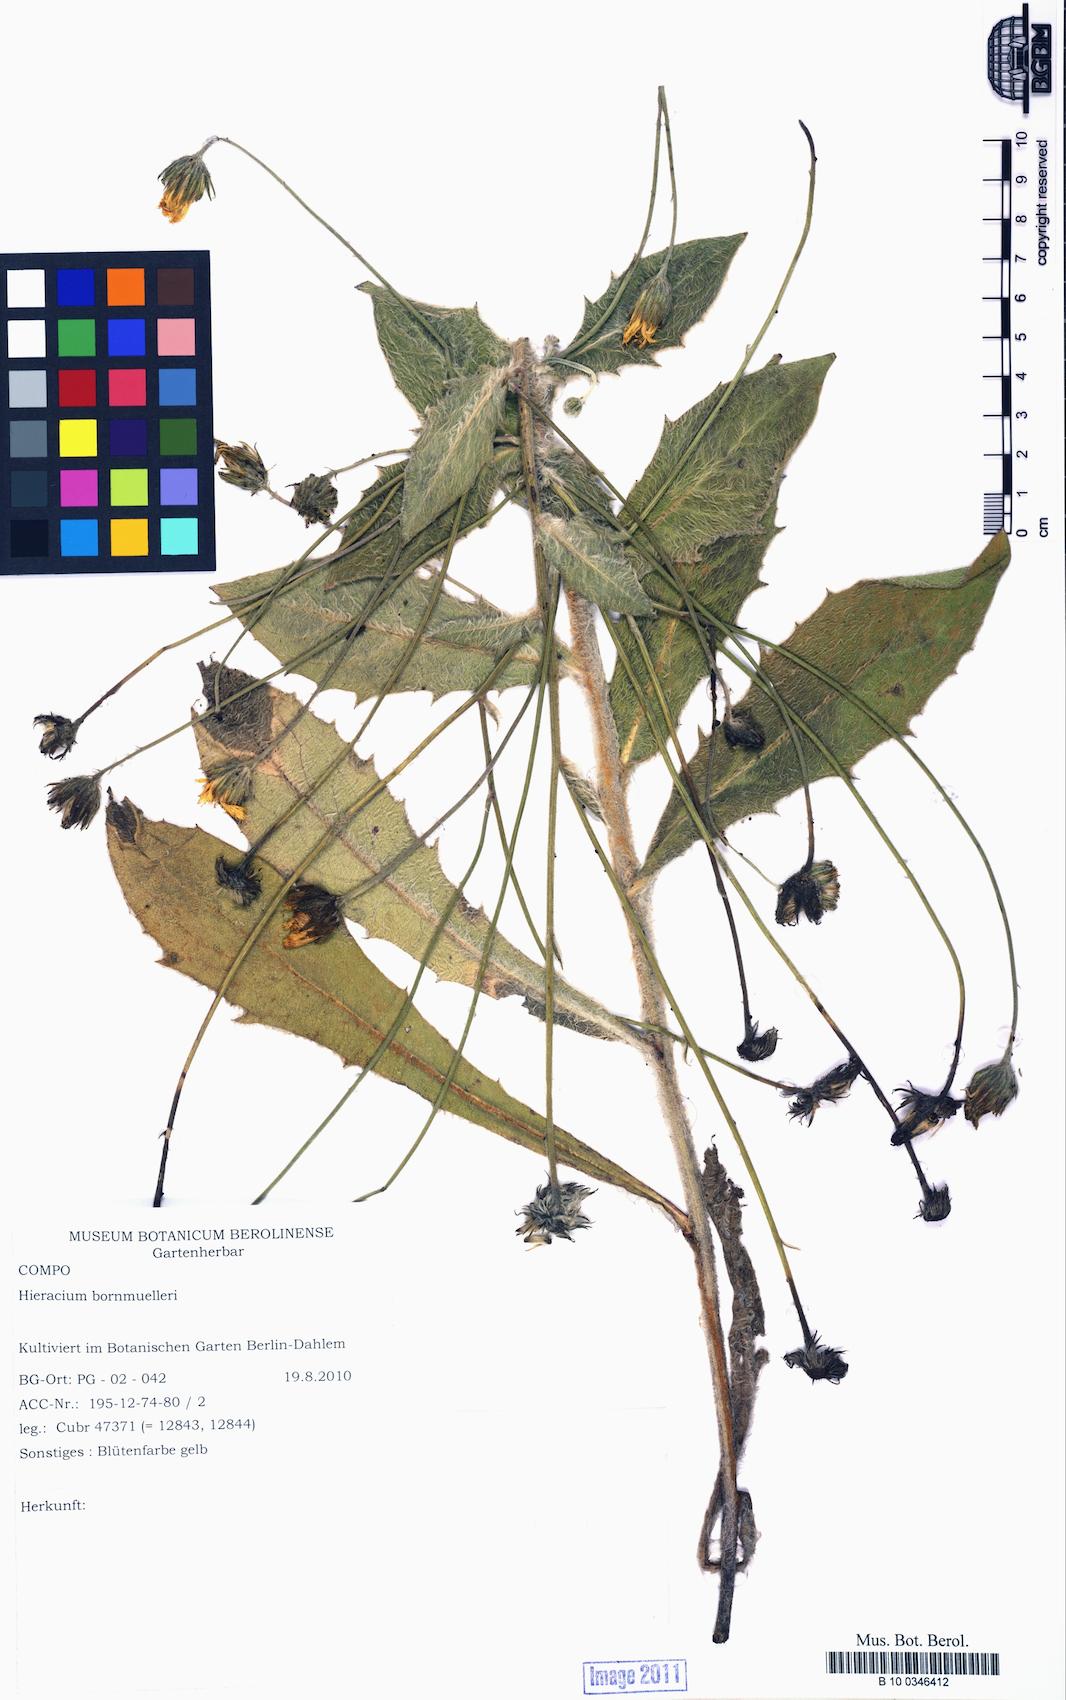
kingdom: Plantae
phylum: Tracheophyta
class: Magnoliopsida
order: Asterales
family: Asteraceae
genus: Hieracium
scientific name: Hieracium pannosum
